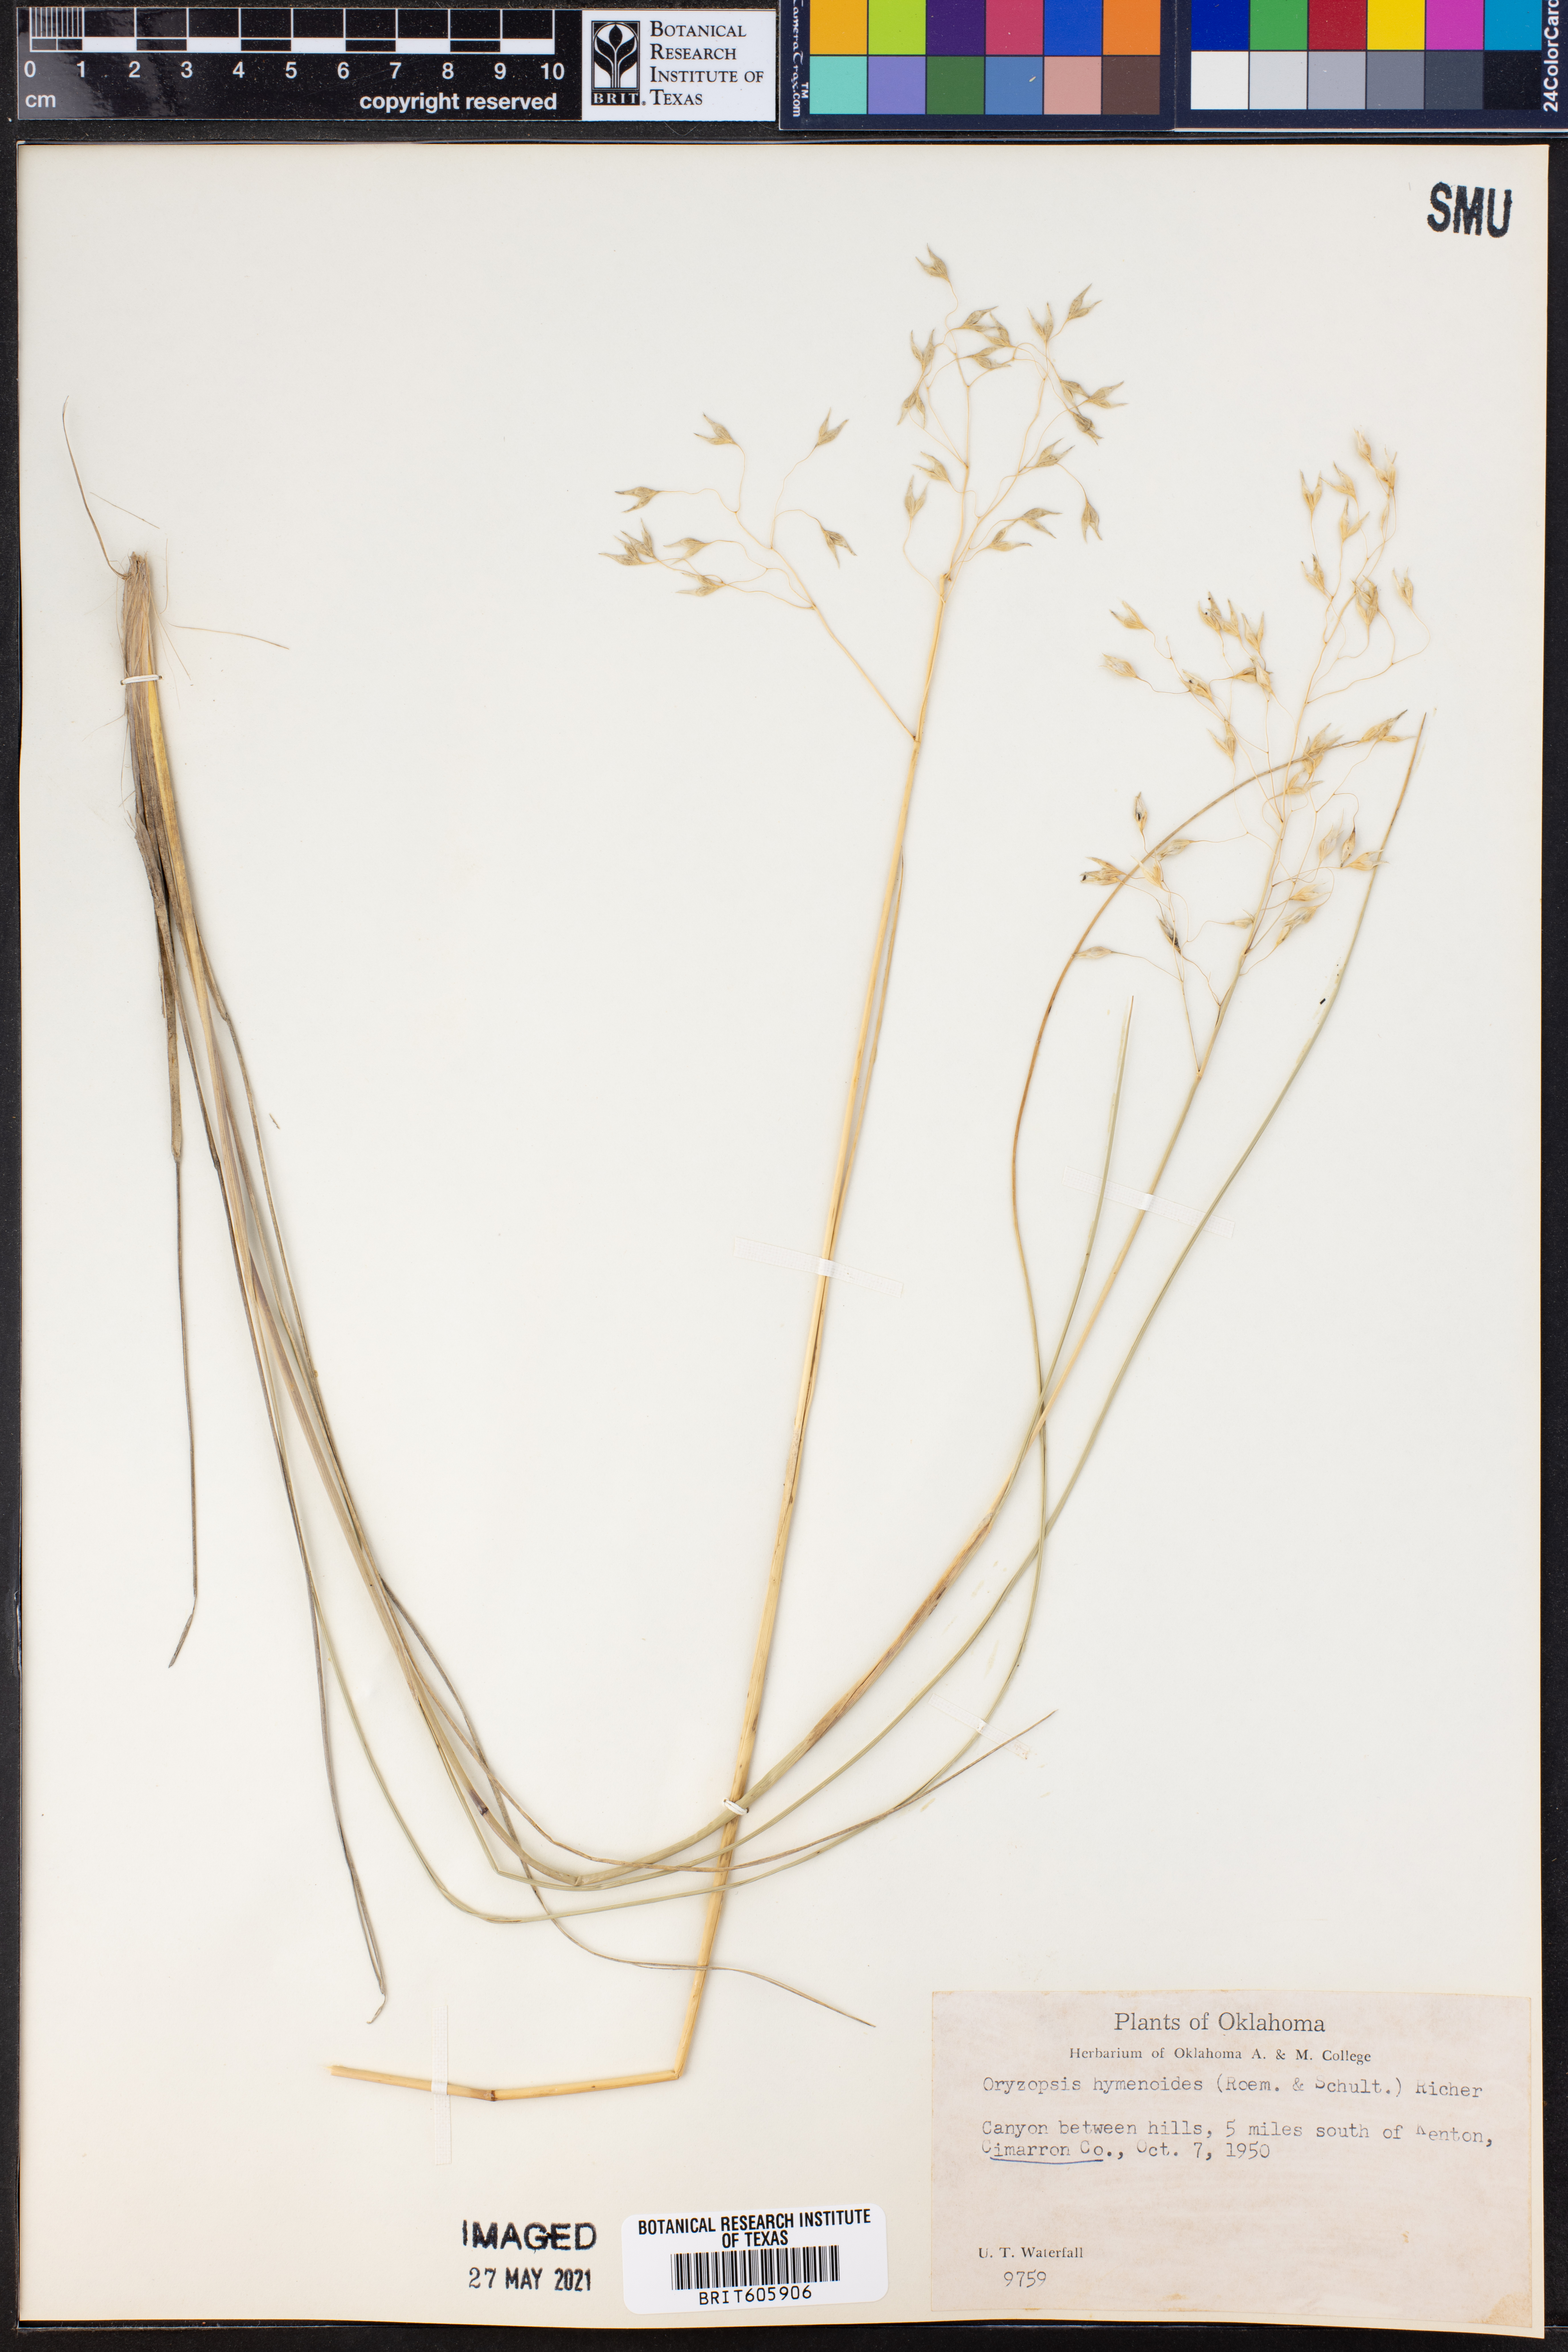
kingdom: Plantae
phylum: Tracheophyta
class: Liliopsida
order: Poales
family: Poaceae
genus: Eriocoma
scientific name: Eriocoma hymenoides
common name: Indian mountain ricegrass
